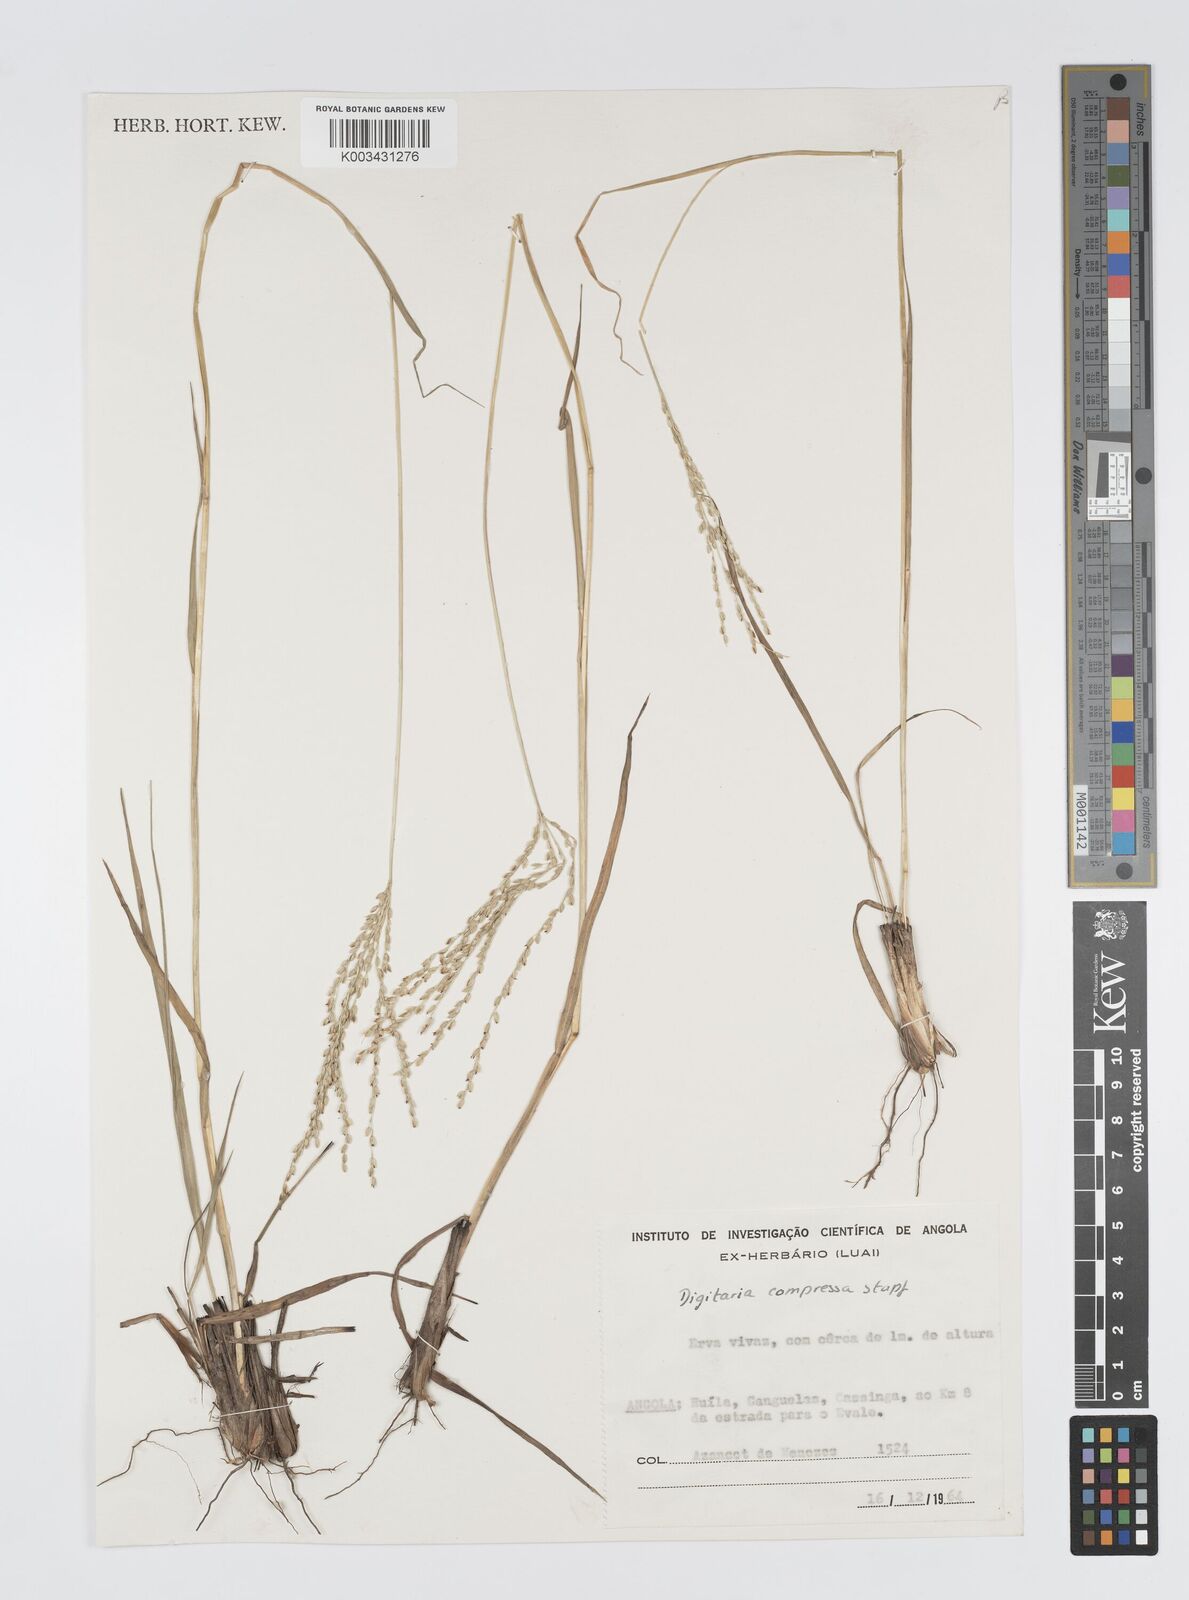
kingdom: Plantae
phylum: Tracheophyta
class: Liliopsida
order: Poales
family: Poaceae
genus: Digitaria
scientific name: Digitaria compressa
